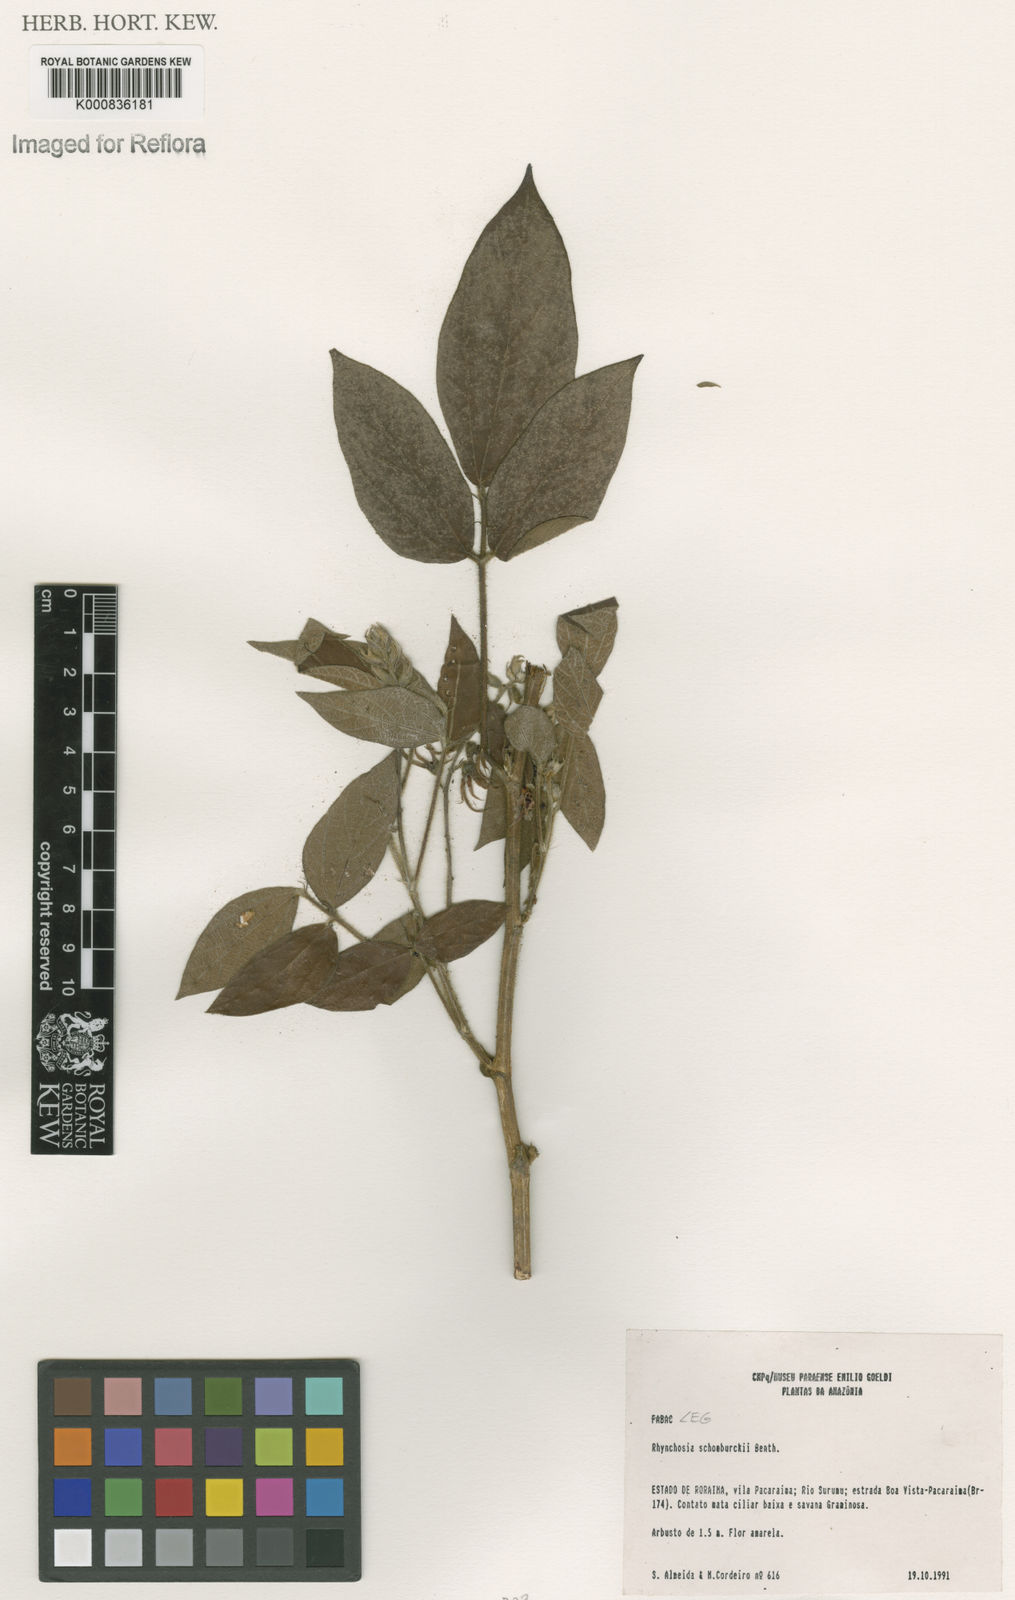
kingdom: Plantae
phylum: Tracheophyta
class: Magnoliopsida
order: Fabales
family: Fabaceae
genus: Rhynchosia
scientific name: Rhynchosia schomburgkii
